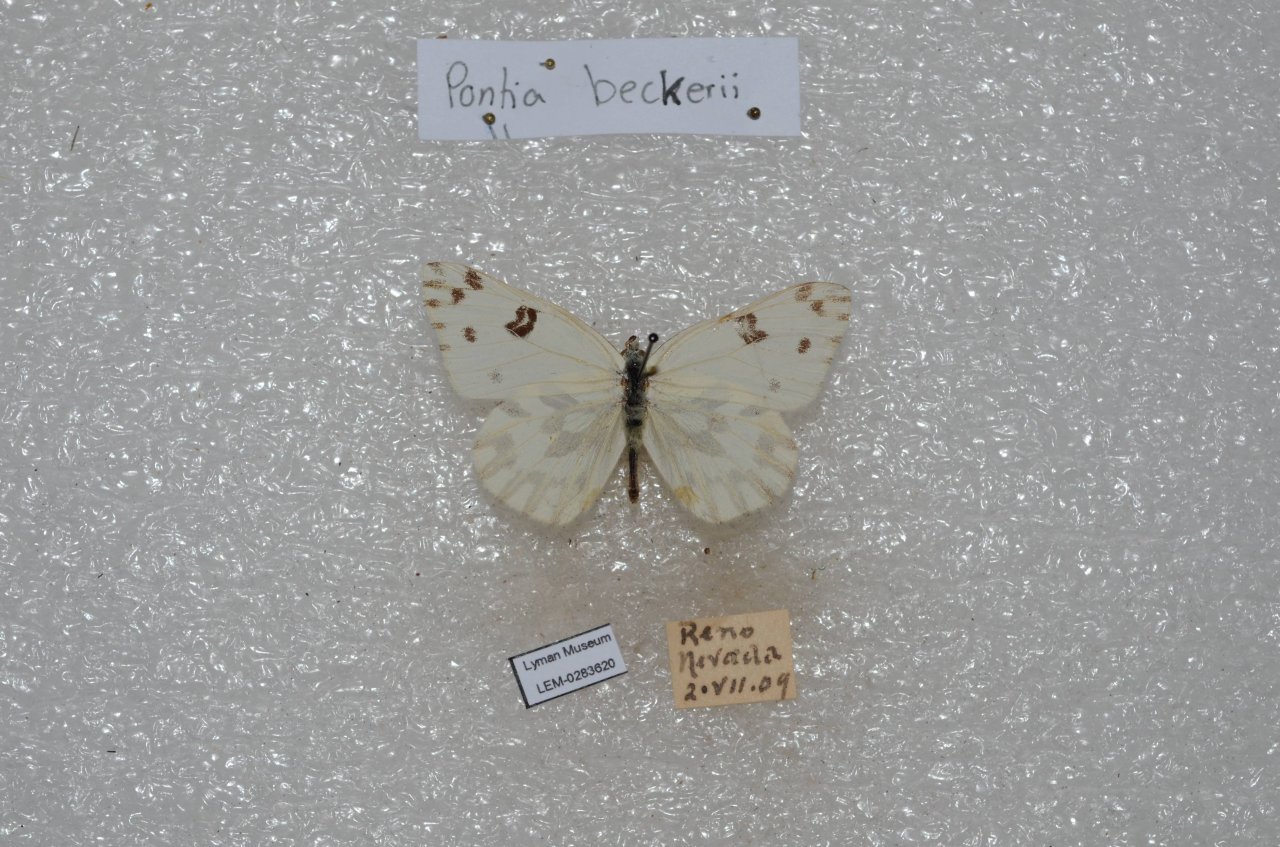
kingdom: Animalia
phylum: Arthropoda
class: Insecta
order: Lepidoptera
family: Pieridae
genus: Pontia
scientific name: Pontia beckerii
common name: Becker's White
